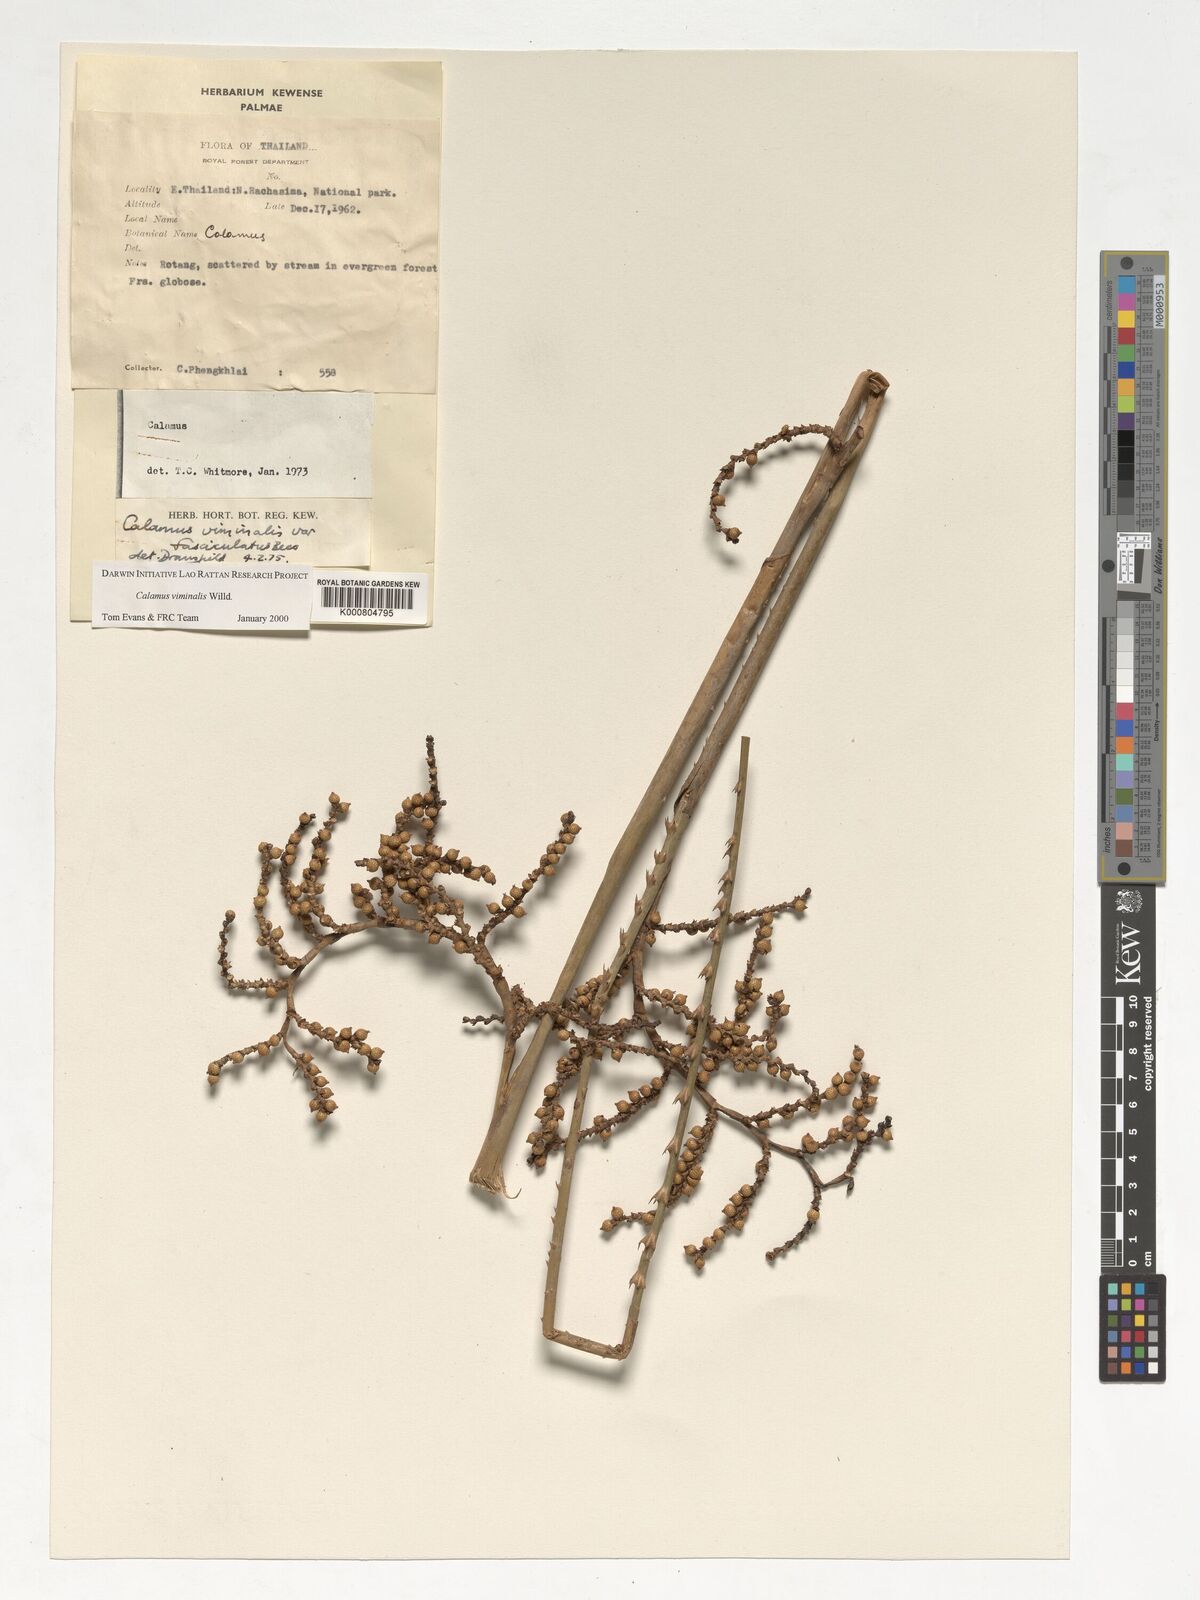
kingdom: Plantae
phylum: Tracheophyta
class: Liliopsida
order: Arecales
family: Arecaceae
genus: Calamus
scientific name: Calamus viminalis
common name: Osier-like rattan palm
